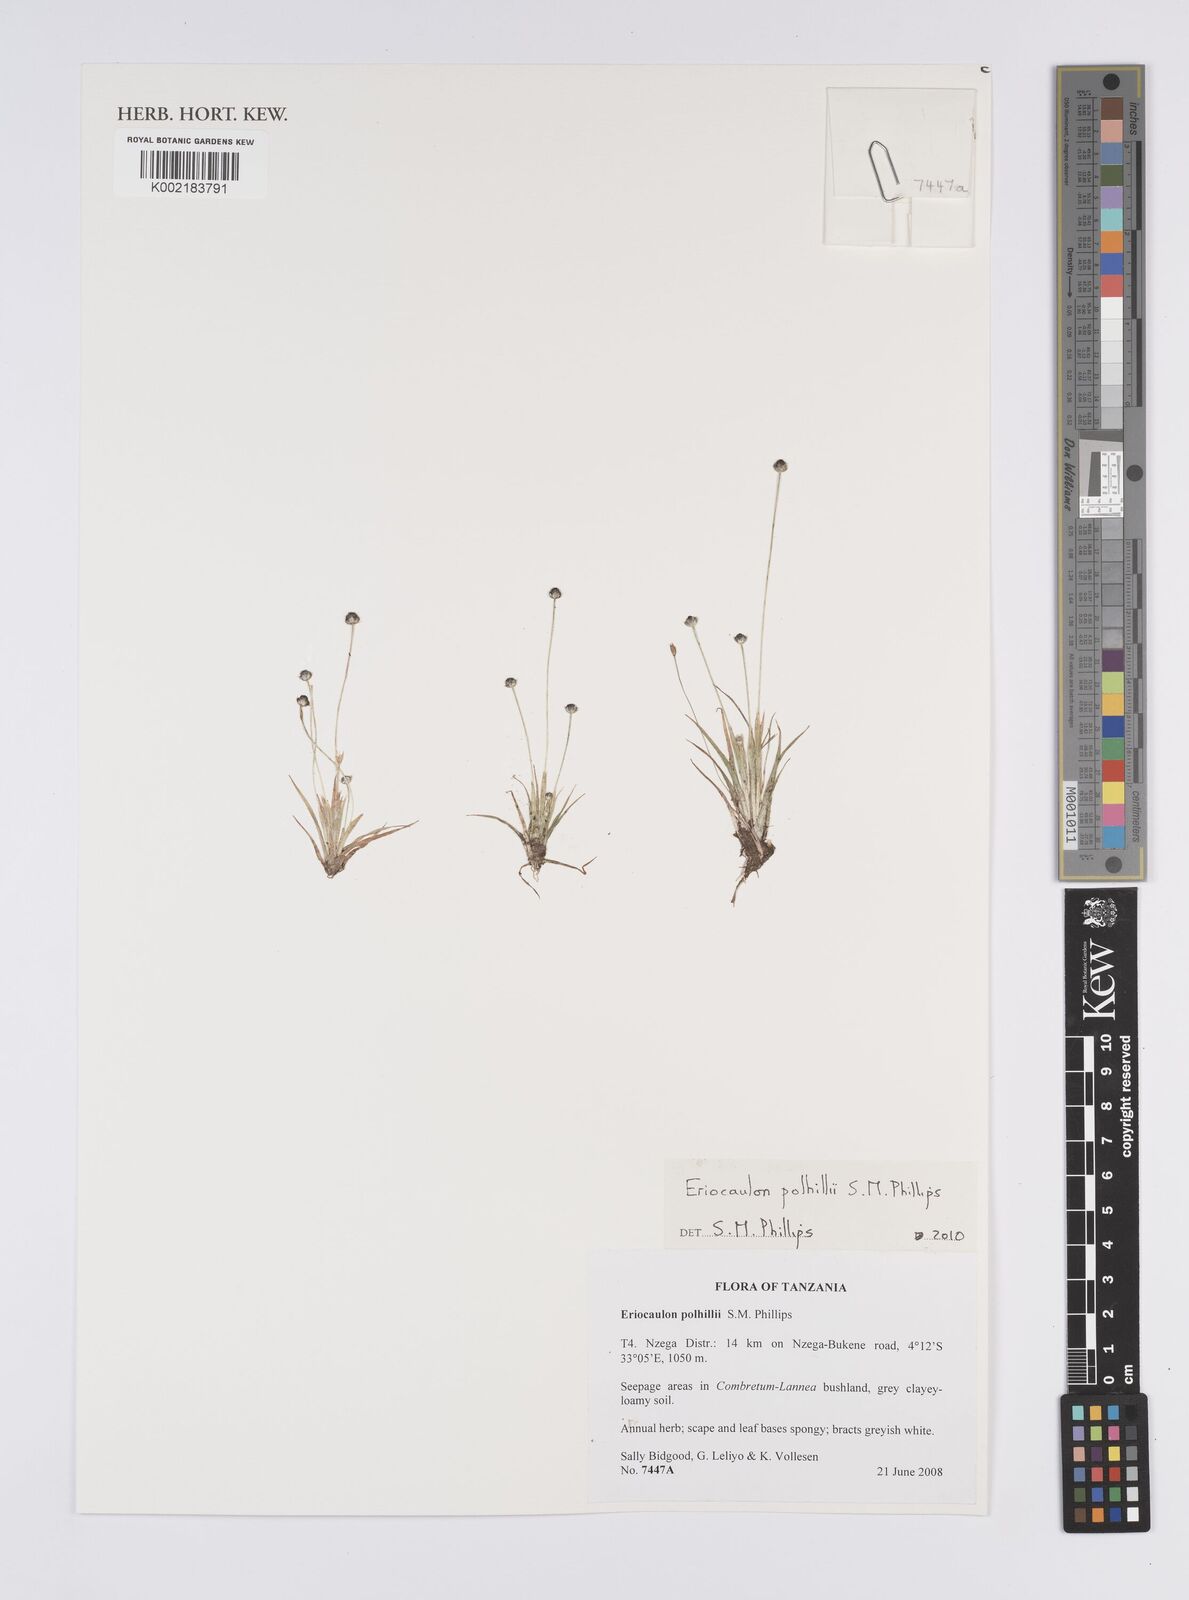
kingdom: Plantae
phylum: Tracheophyta
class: Liliopsida
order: Poales
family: Eriocaulaceae
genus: Eriocaulon
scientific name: Eriocaulon polhillii
